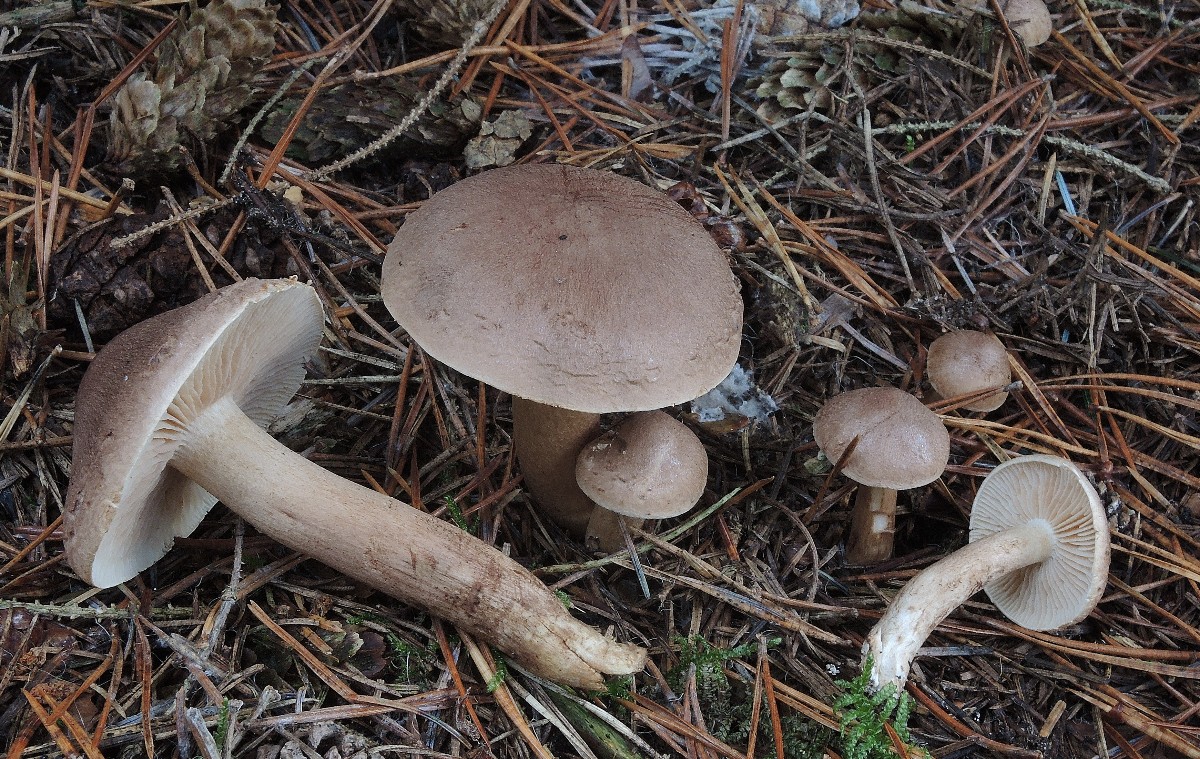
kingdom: Fungi
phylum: Basidiomycota
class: Agaricomycetes
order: Agaricales
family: Tricholomataceae
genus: Tricholoma
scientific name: Tricholoma imbricatum
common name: skællet ridderhat
